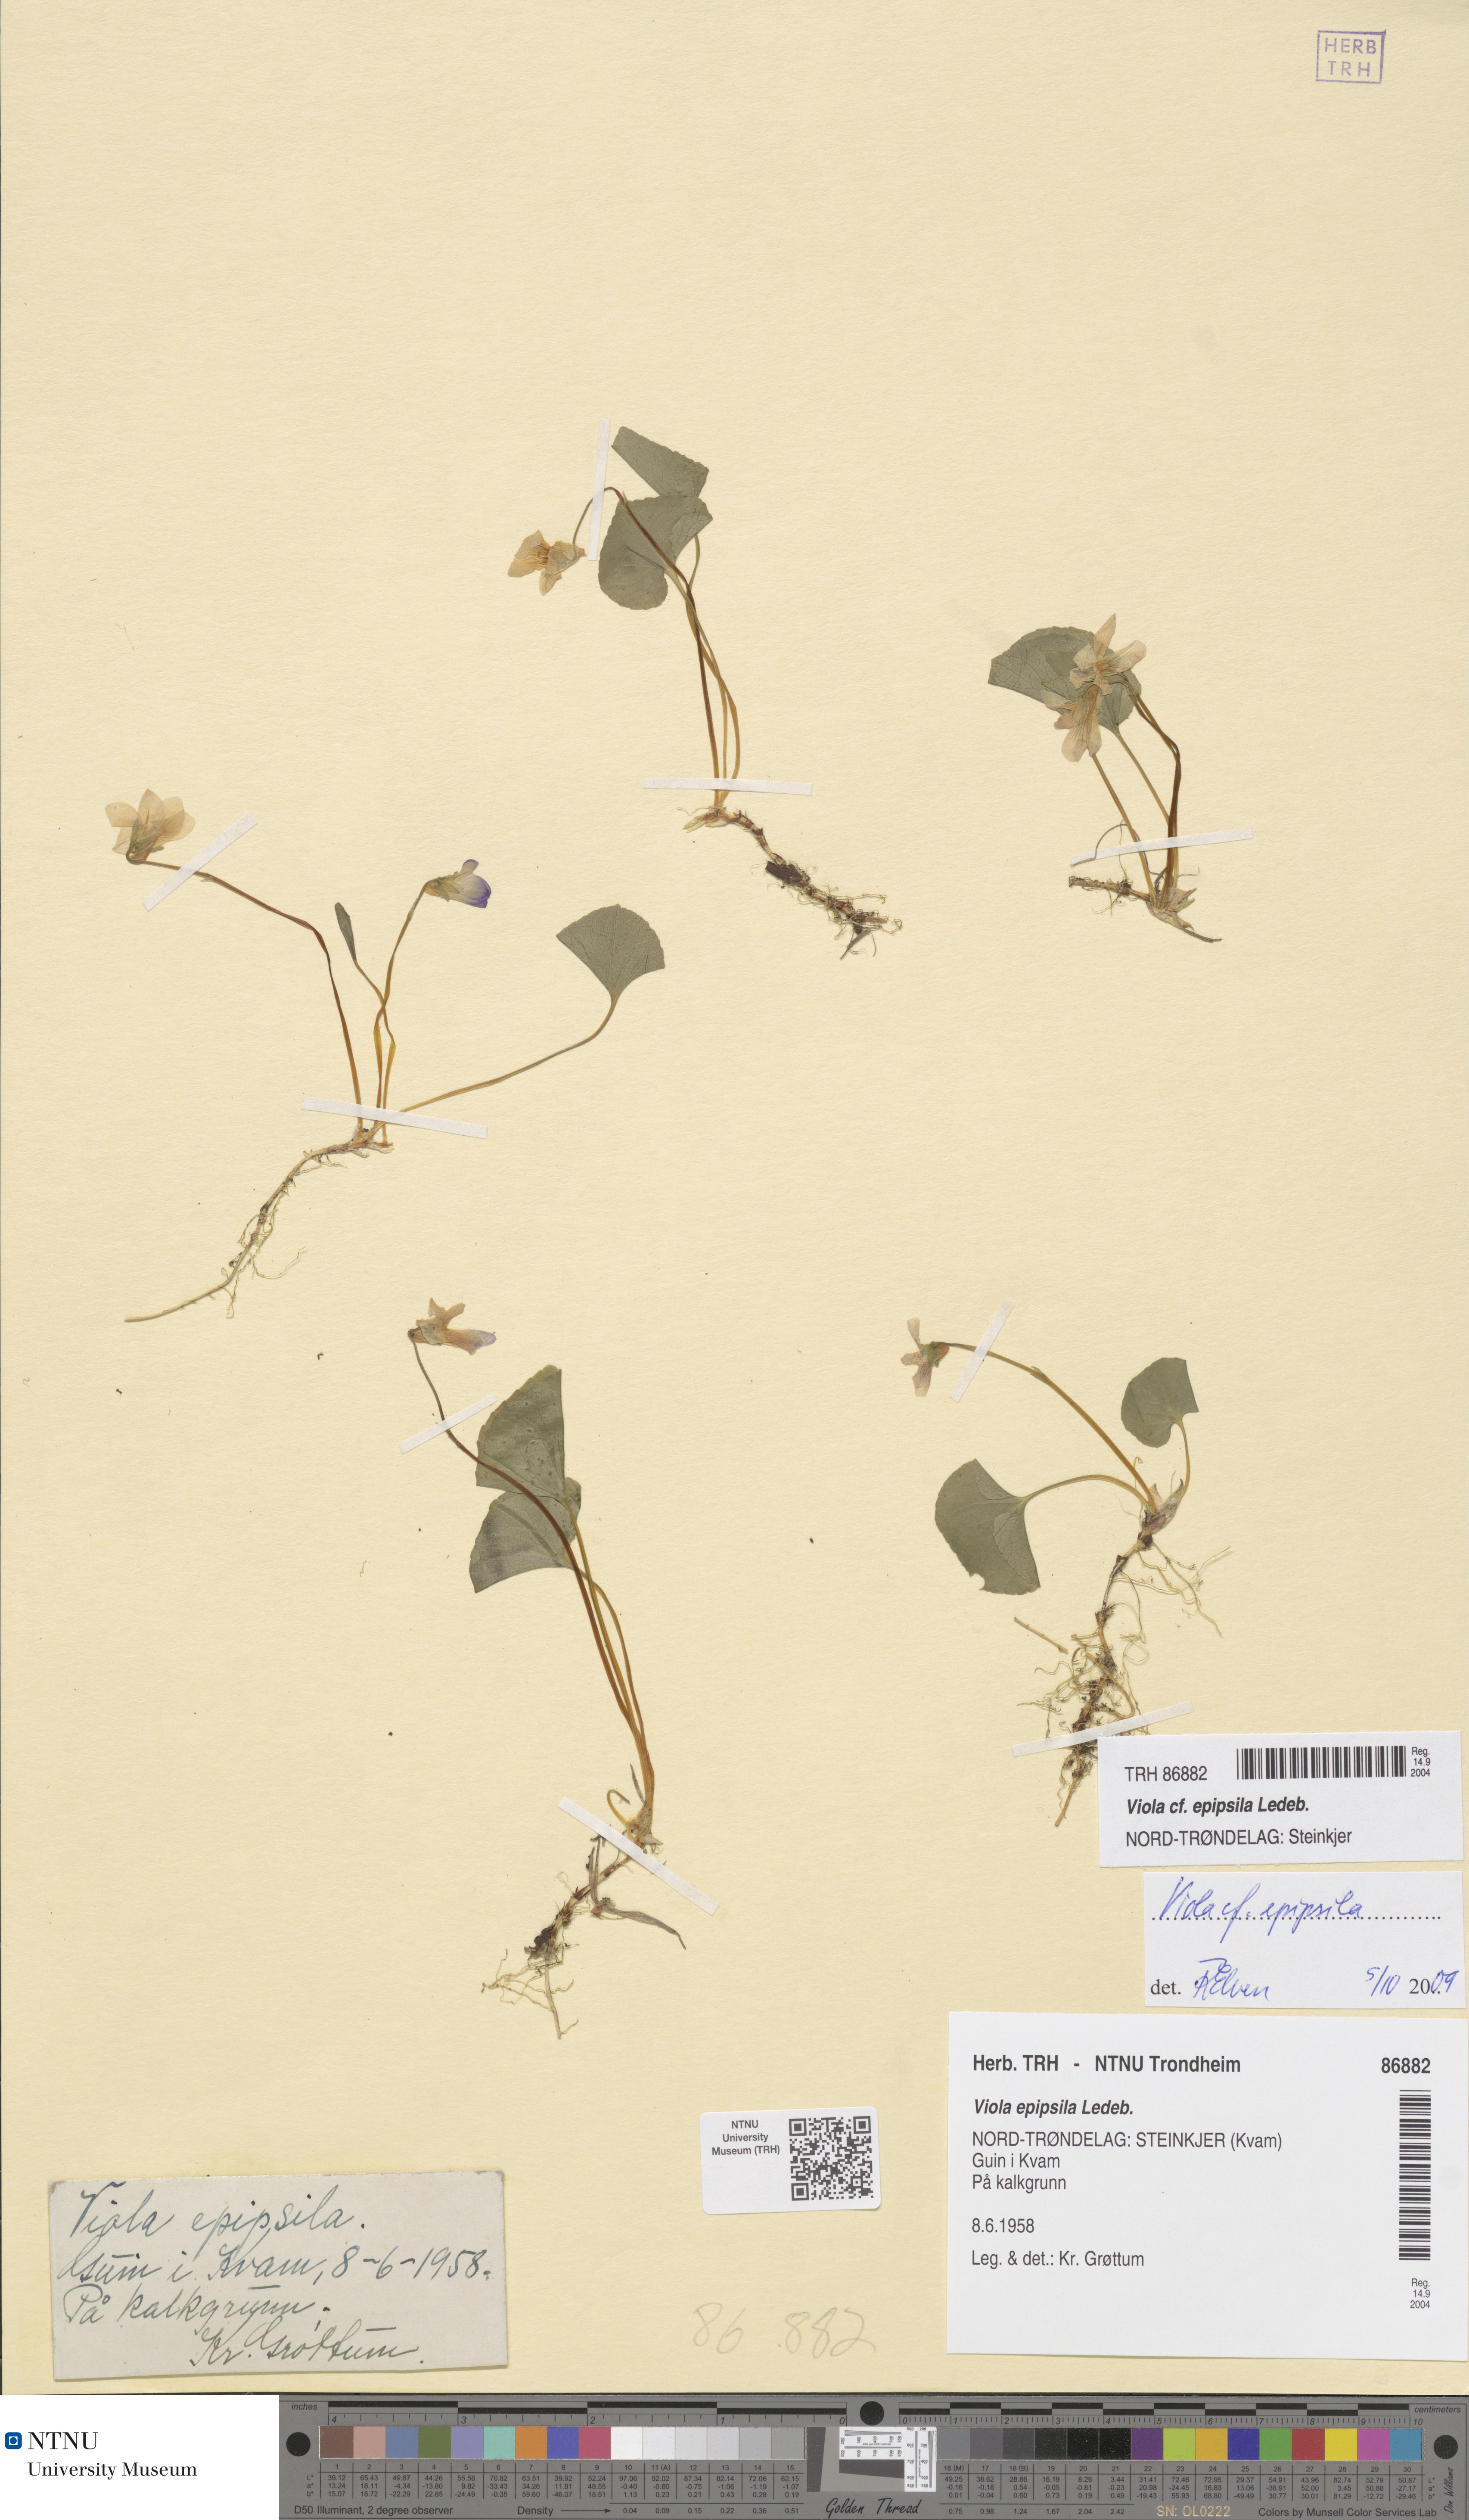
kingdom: Plantae
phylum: Tracheophyta
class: Magnoliopsida
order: Malpighiales
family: Violaceae
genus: Viola
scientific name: Viola epipsila
